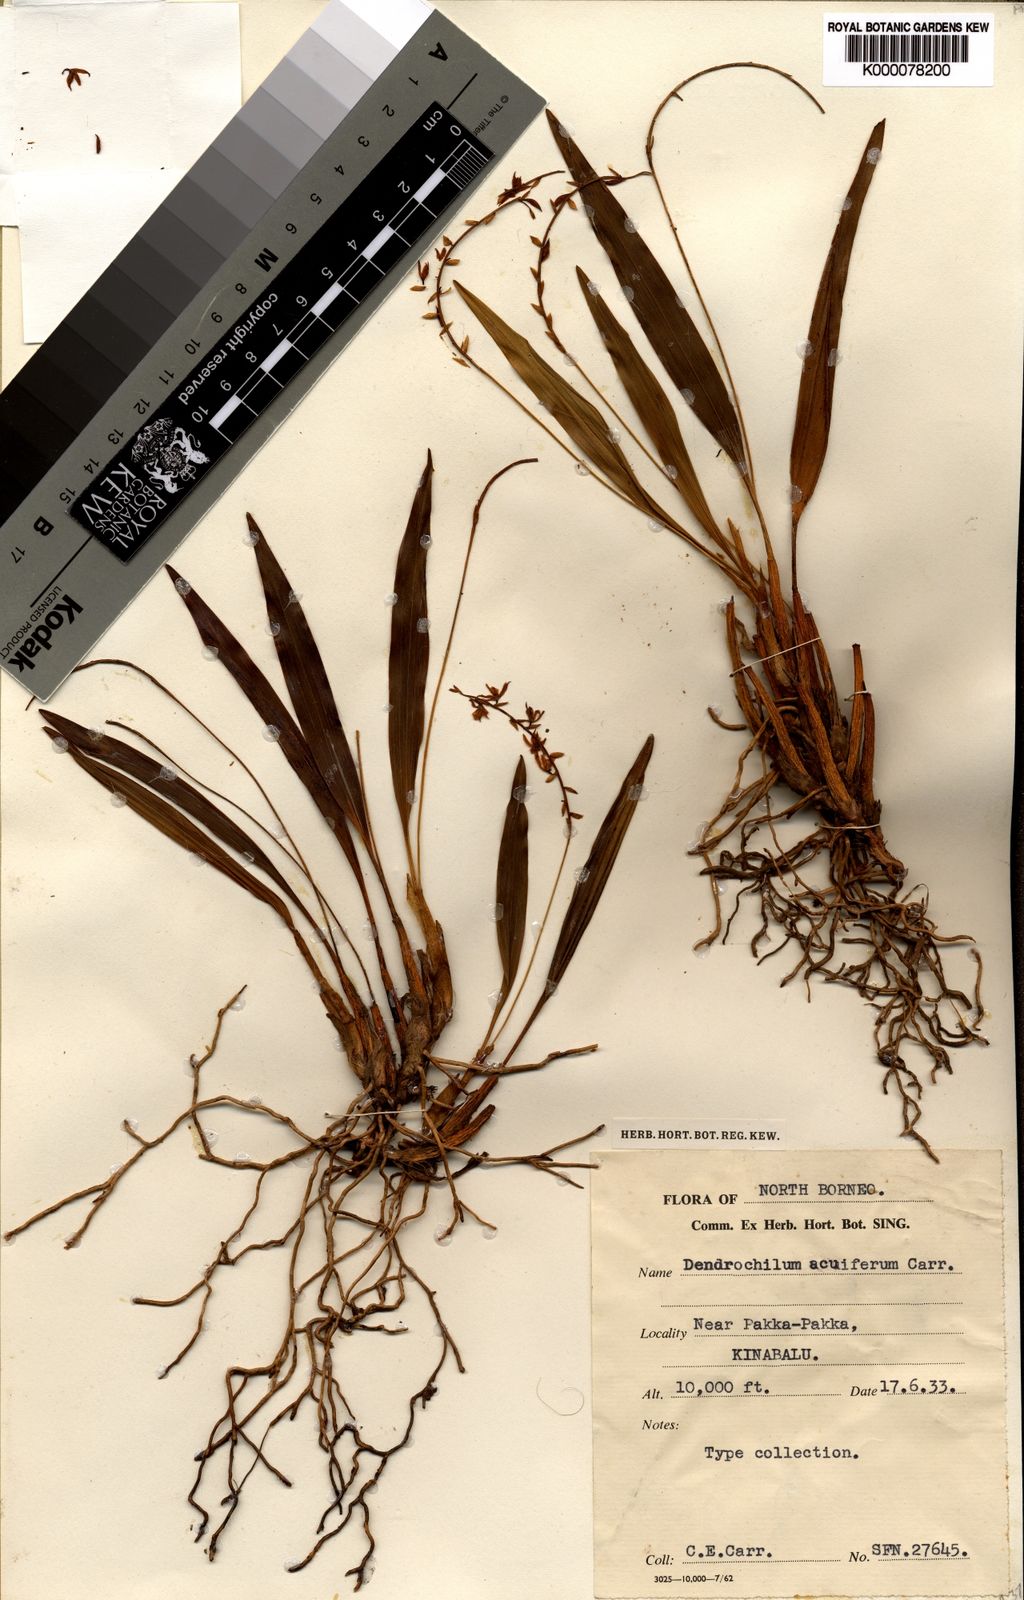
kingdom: Plantae
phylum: Tracheophyta
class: Liliopsida
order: Asparagales
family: Orchidaceae
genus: Coelogyne
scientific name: Coelogyne acuifera
